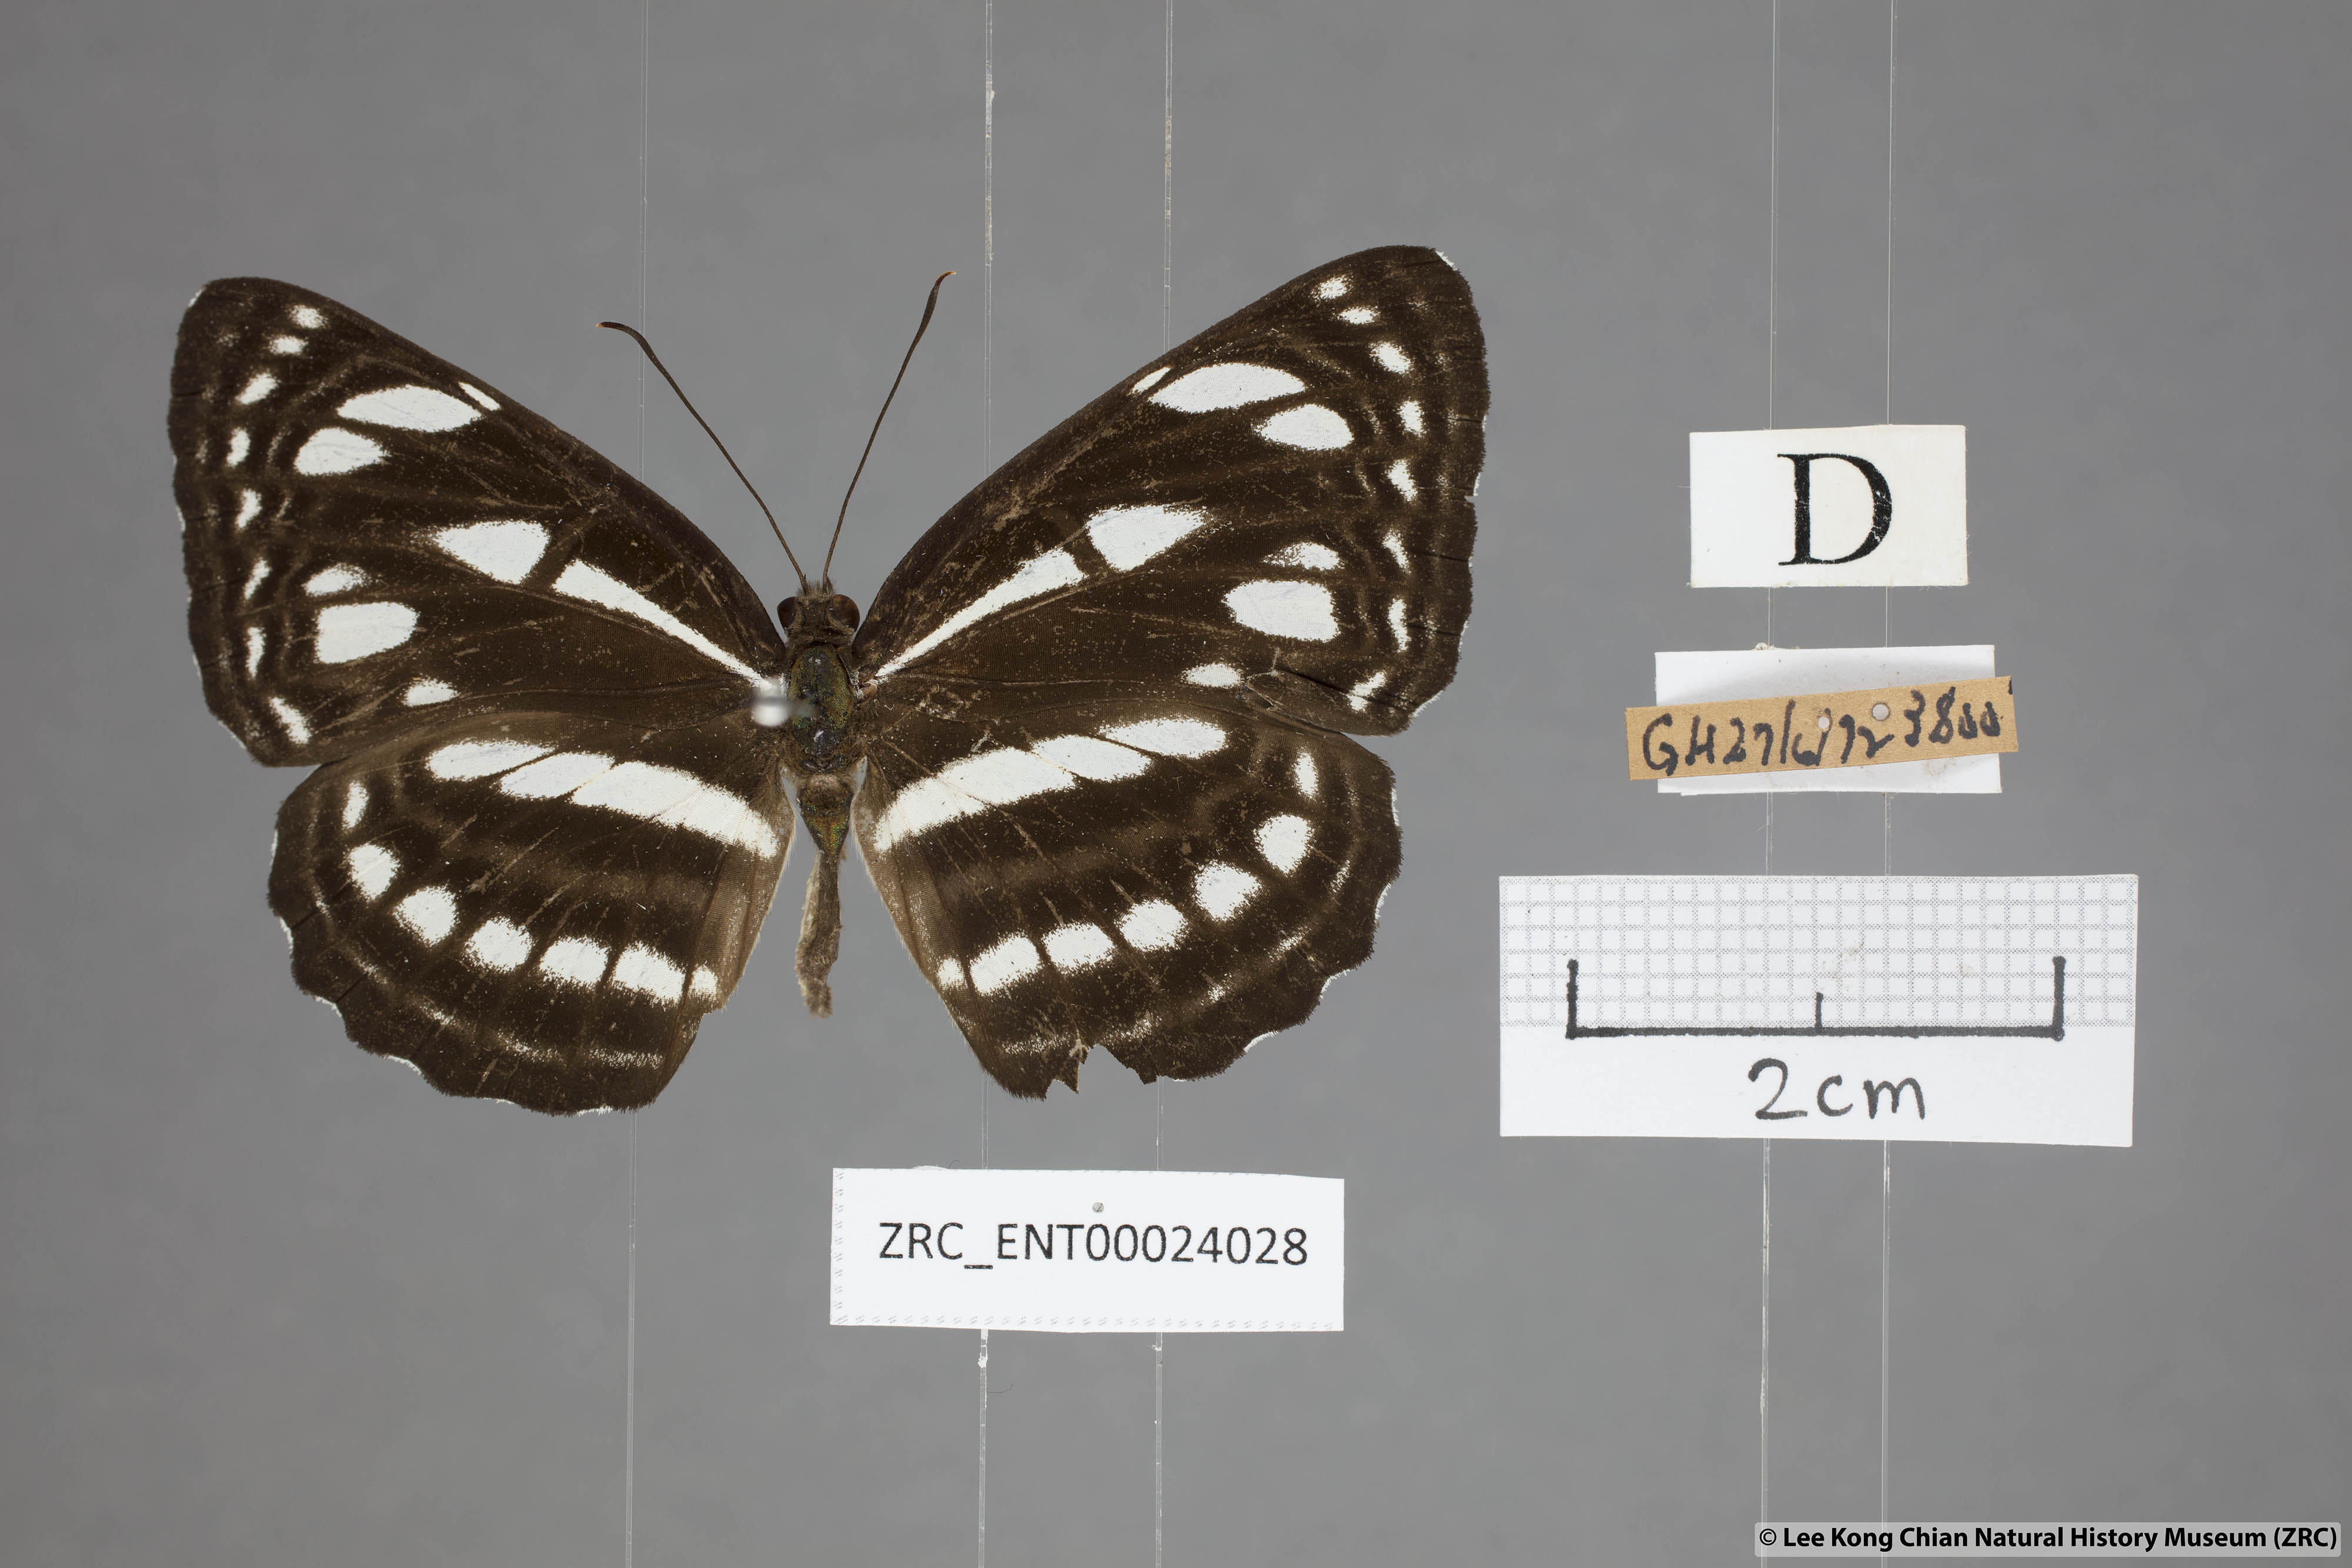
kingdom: Animalia
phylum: Arthropoda
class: Insecta
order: Lepidoptera
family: Nymphalidae
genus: Neptis
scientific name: Neptis magadha
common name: Spotted sailer
